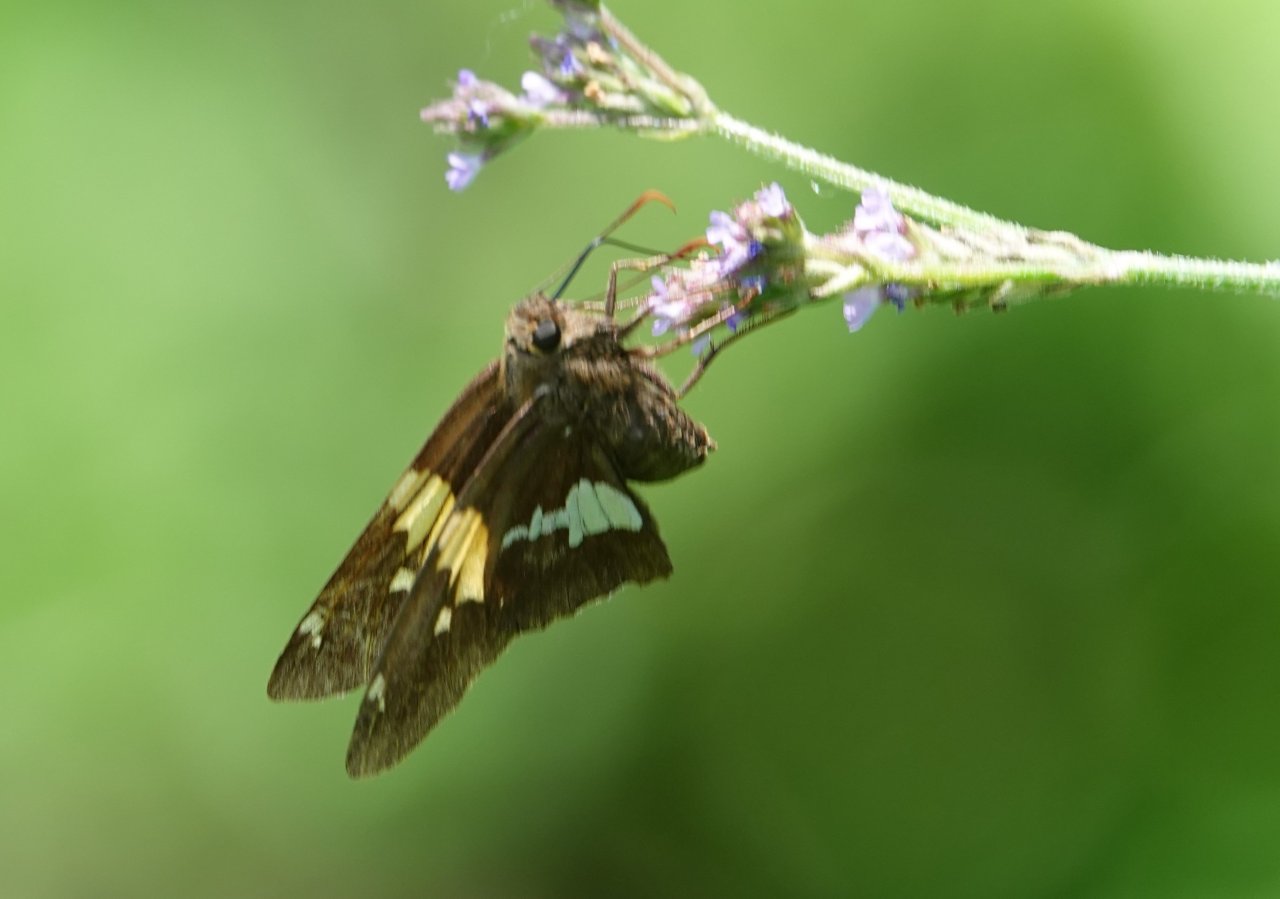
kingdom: Animalia
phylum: Arthropoda
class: Insecta
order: Lepidoptera
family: Hesperiidae
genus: Epargyreus
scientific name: Epargyreus clarus
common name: Silver-spotted Skipper
